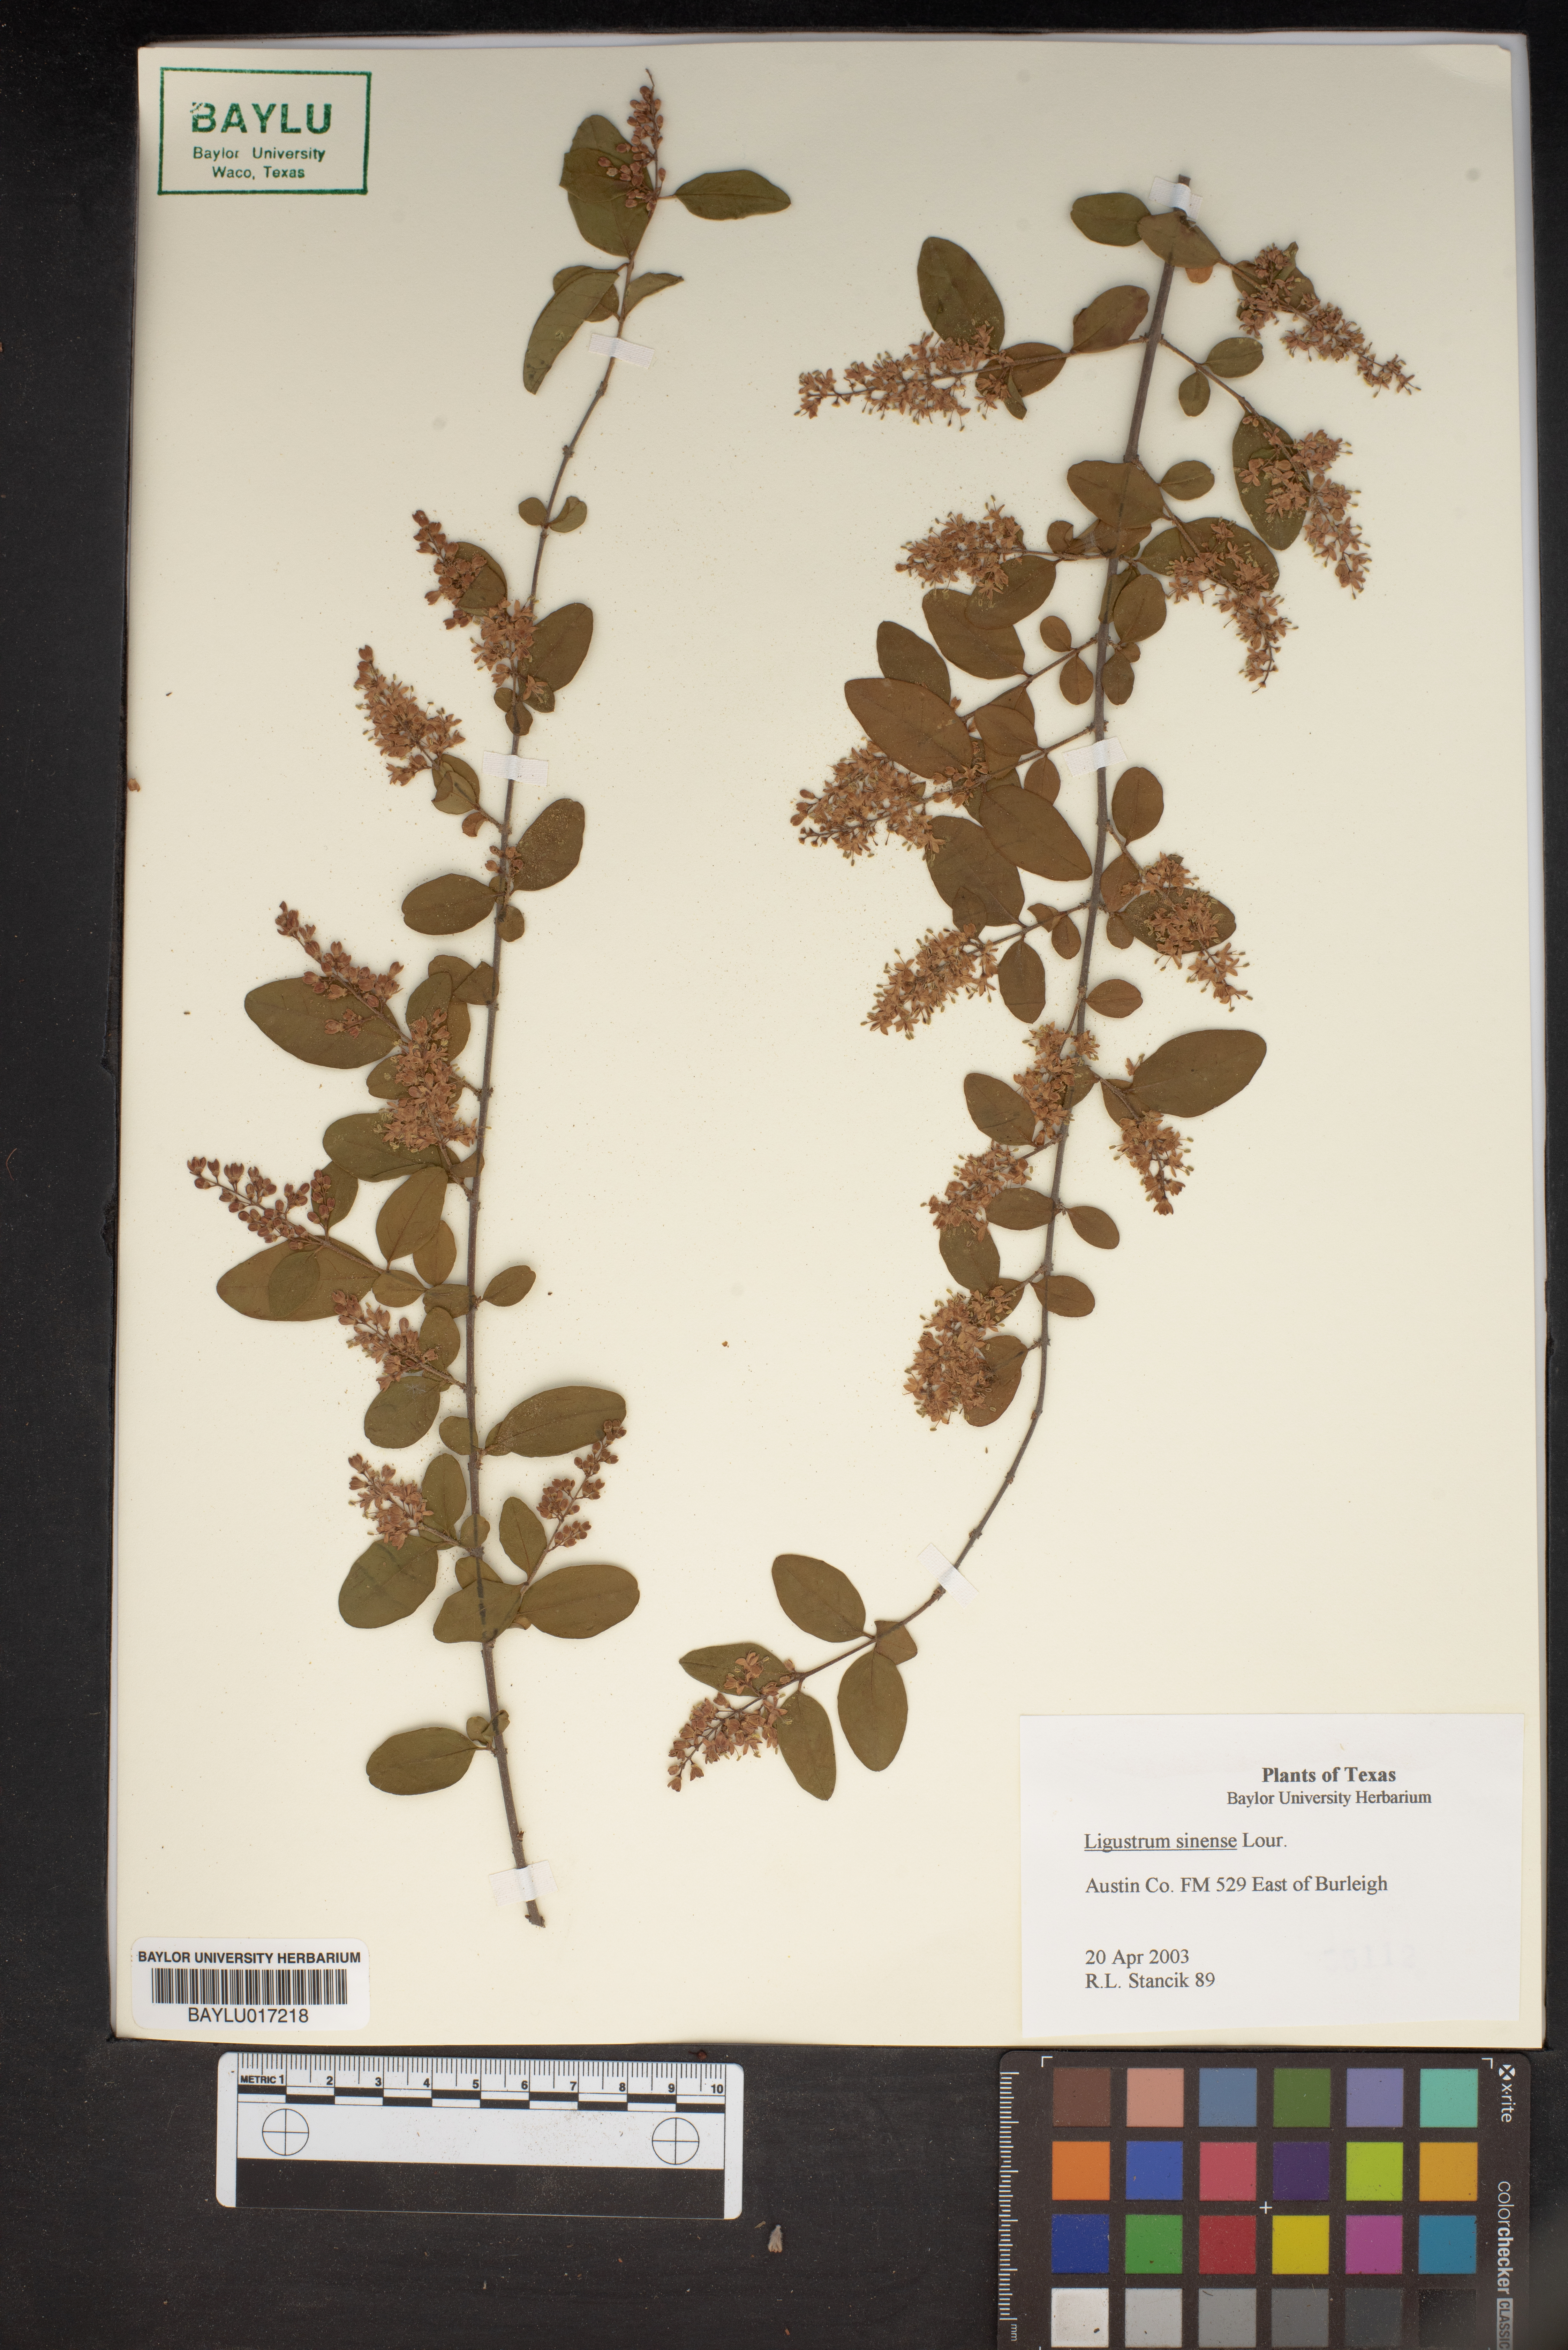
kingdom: Plantae
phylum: Tracheophyta
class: Magnoliopsida
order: Lamiales
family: Oleaceae
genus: Ligustrum
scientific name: Ligustrum sinense
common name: Chinese privet
